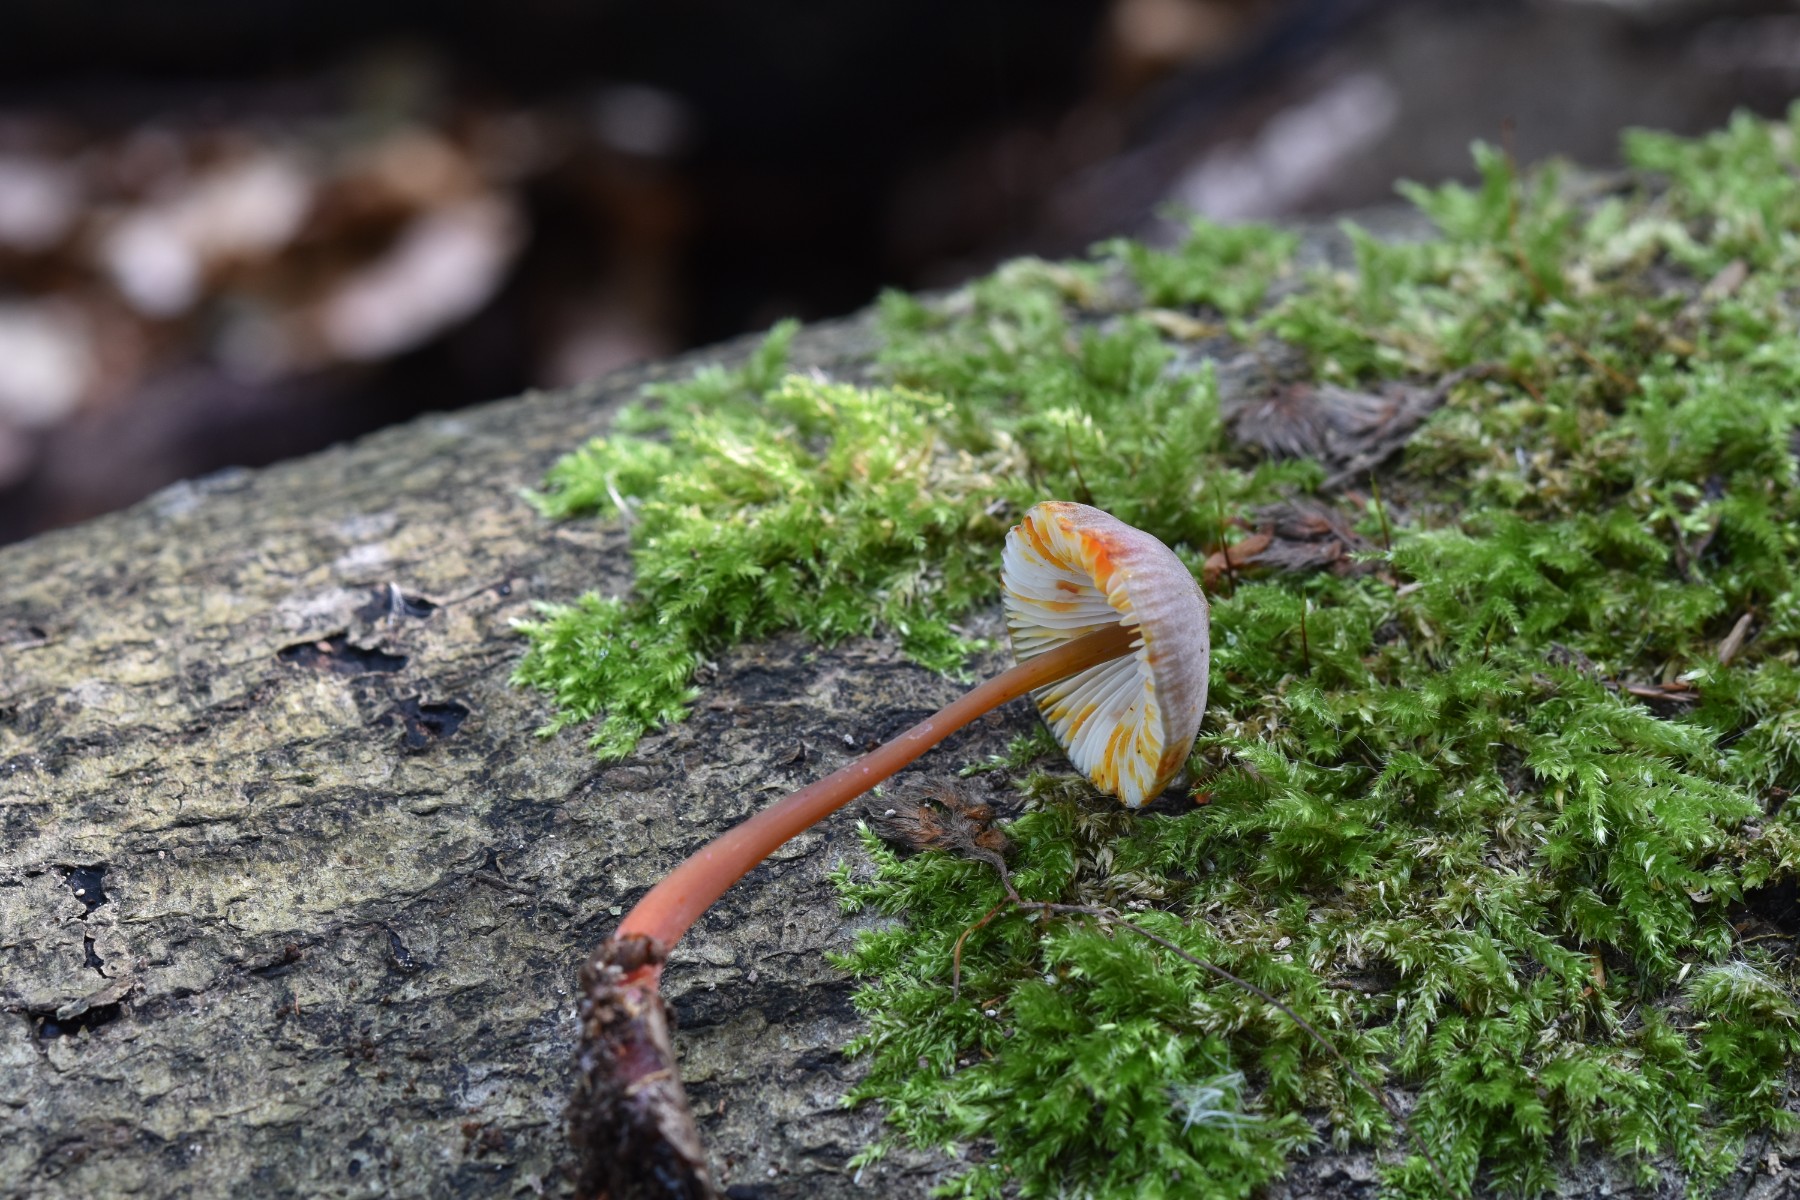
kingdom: Fungi
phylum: Basidiomycota
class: Agaricomycetes
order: Agaricales
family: Mycenaceae
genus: Mycena
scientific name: Mycena crocata
